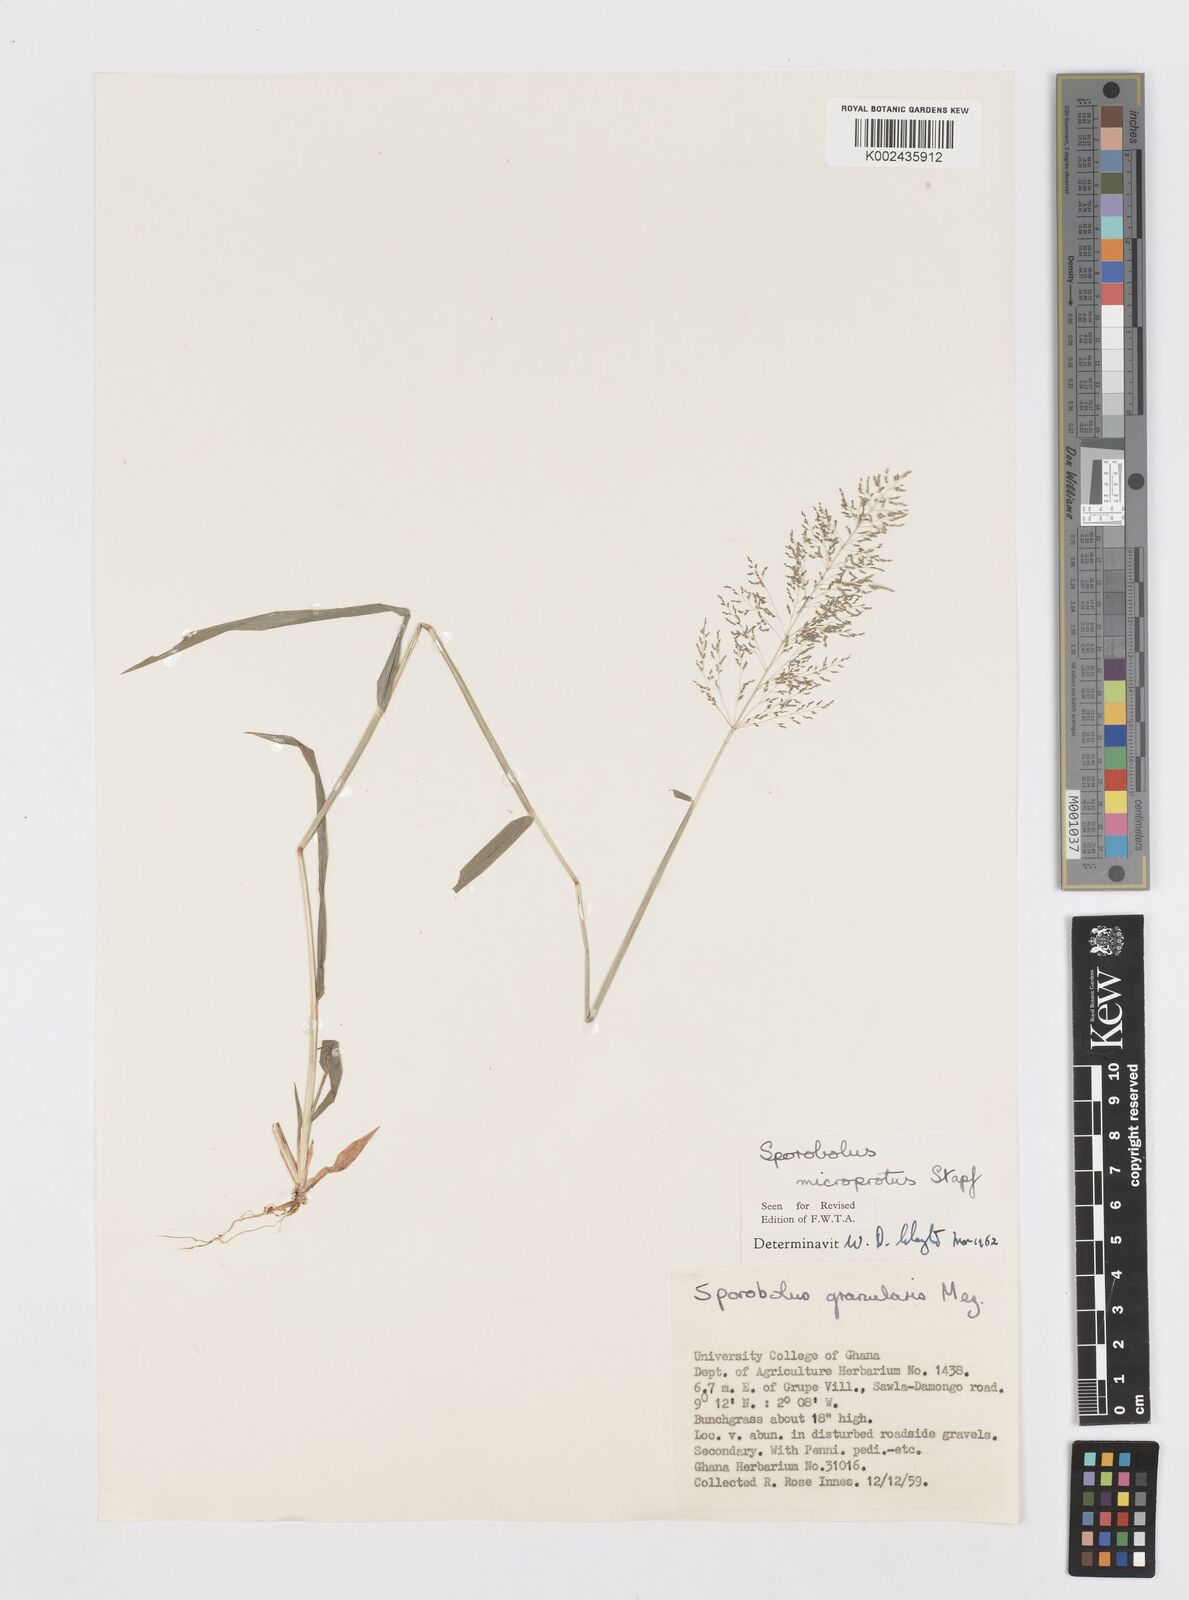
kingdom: Plantae
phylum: Tracheophyta
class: Liliopsida
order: Poales
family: Poaceae
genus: Sporobolus
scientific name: Sporobolus microprotus
